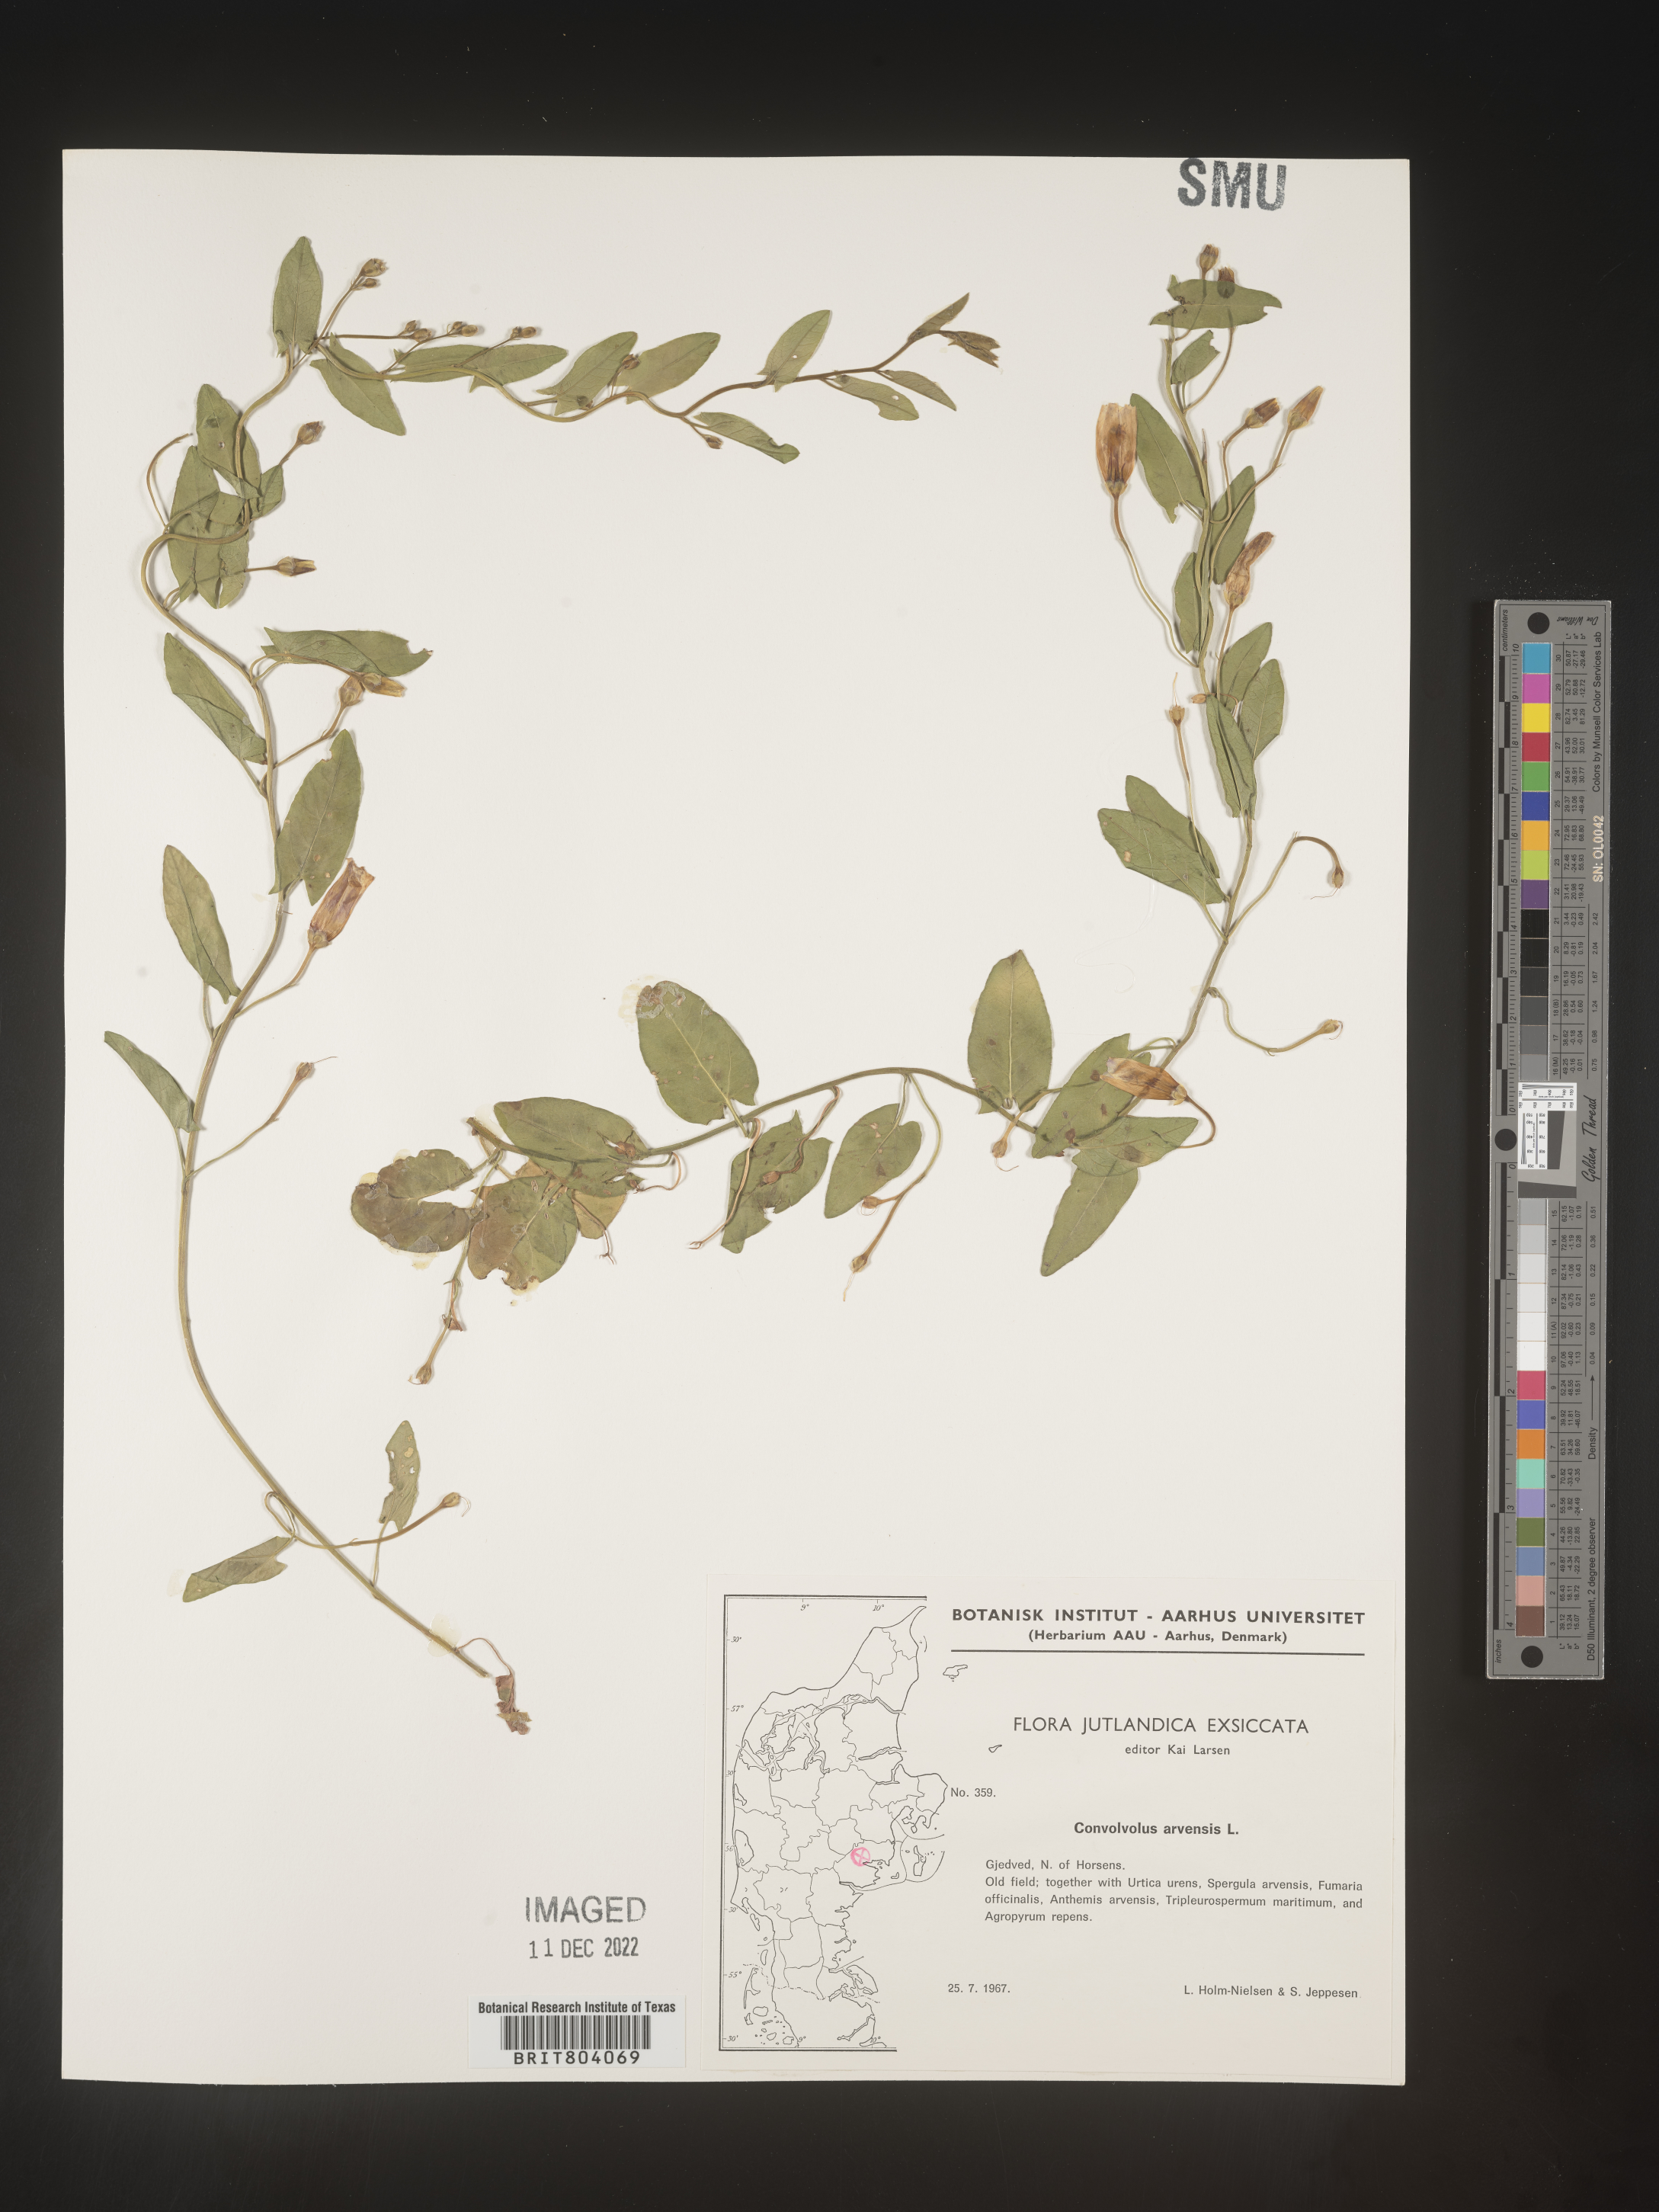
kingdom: Plantae
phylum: Tracheophyta
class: Magnoliopsida
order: Solanales
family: Convolvulaceae
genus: Convolvulus
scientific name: Convolvulus
